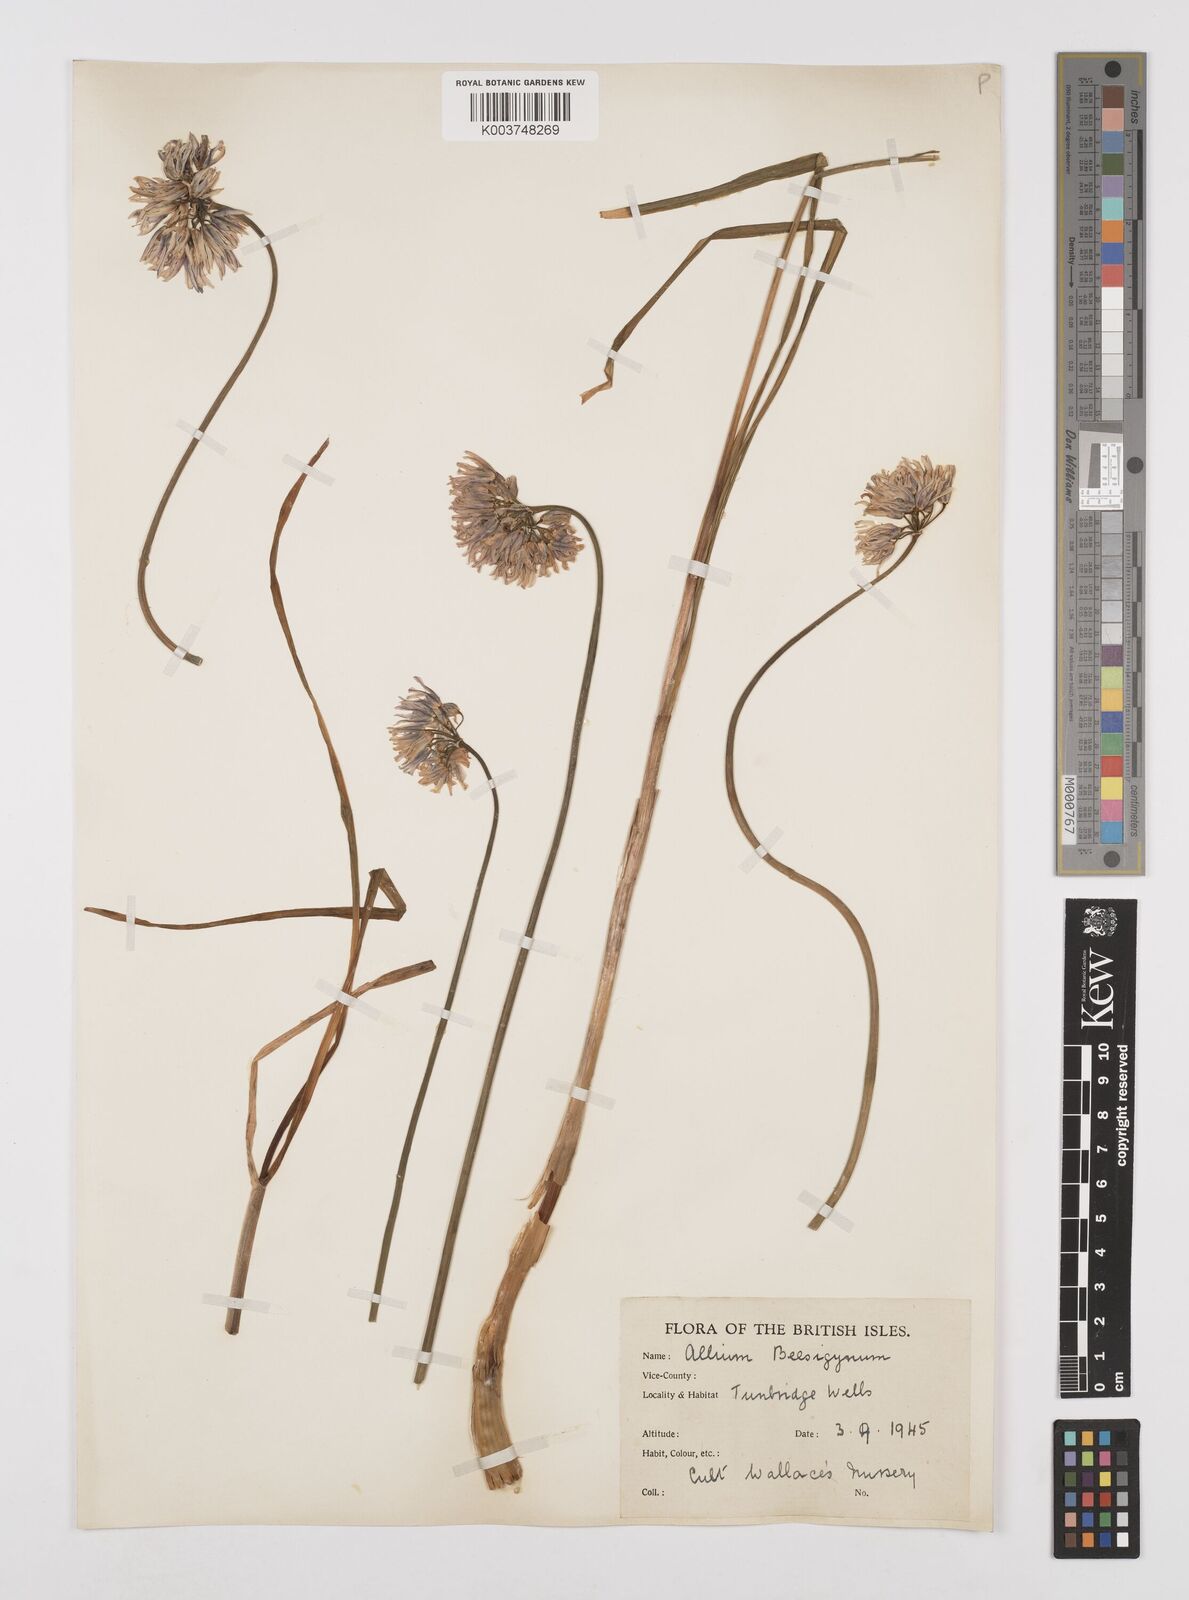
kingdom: Plantae
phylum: Tracheophyta
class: Liliopsida
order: Asparagales
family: Amaryllidaceae
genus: Allium
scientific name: Allium
